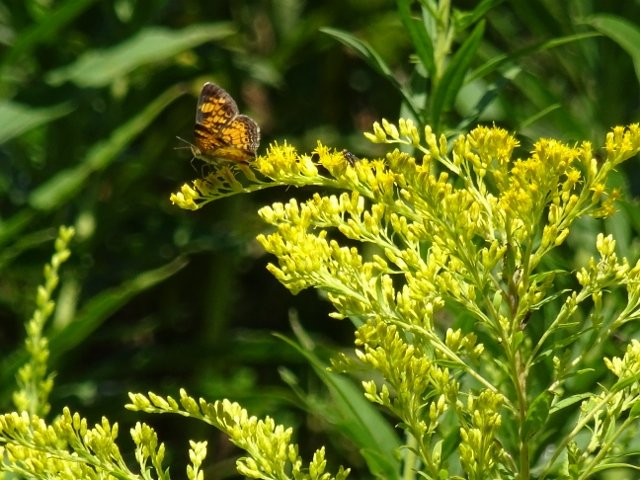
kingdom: Animalia
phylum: Arthropoda
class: Insecta
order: Lepidoptera
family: Nymphalidae
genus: Phyciodes
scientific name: Phyciodes
